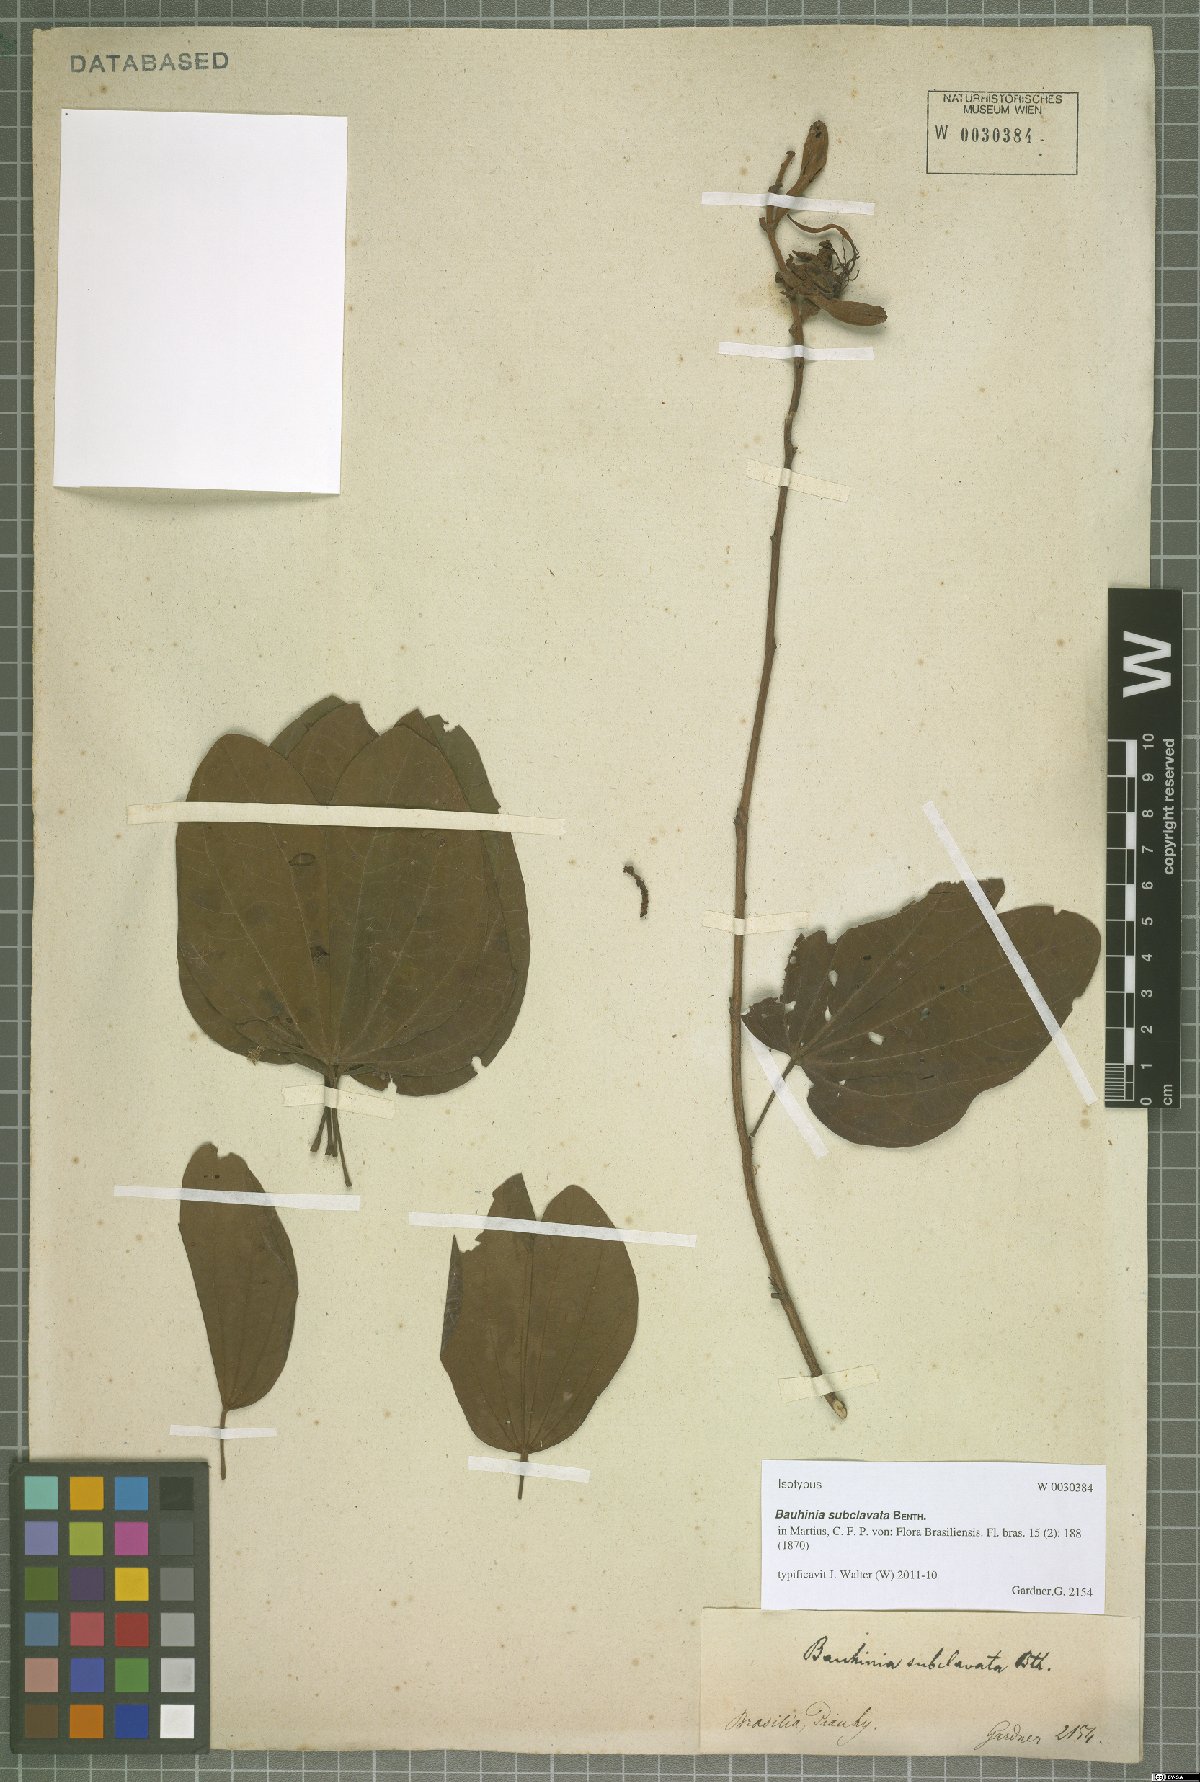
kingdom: Plantae
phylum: Tracheophyta
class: Magnoliopsida
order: Fabales
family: Fabaceae
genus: Bauhinia
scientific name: Bauhinia subclavata
